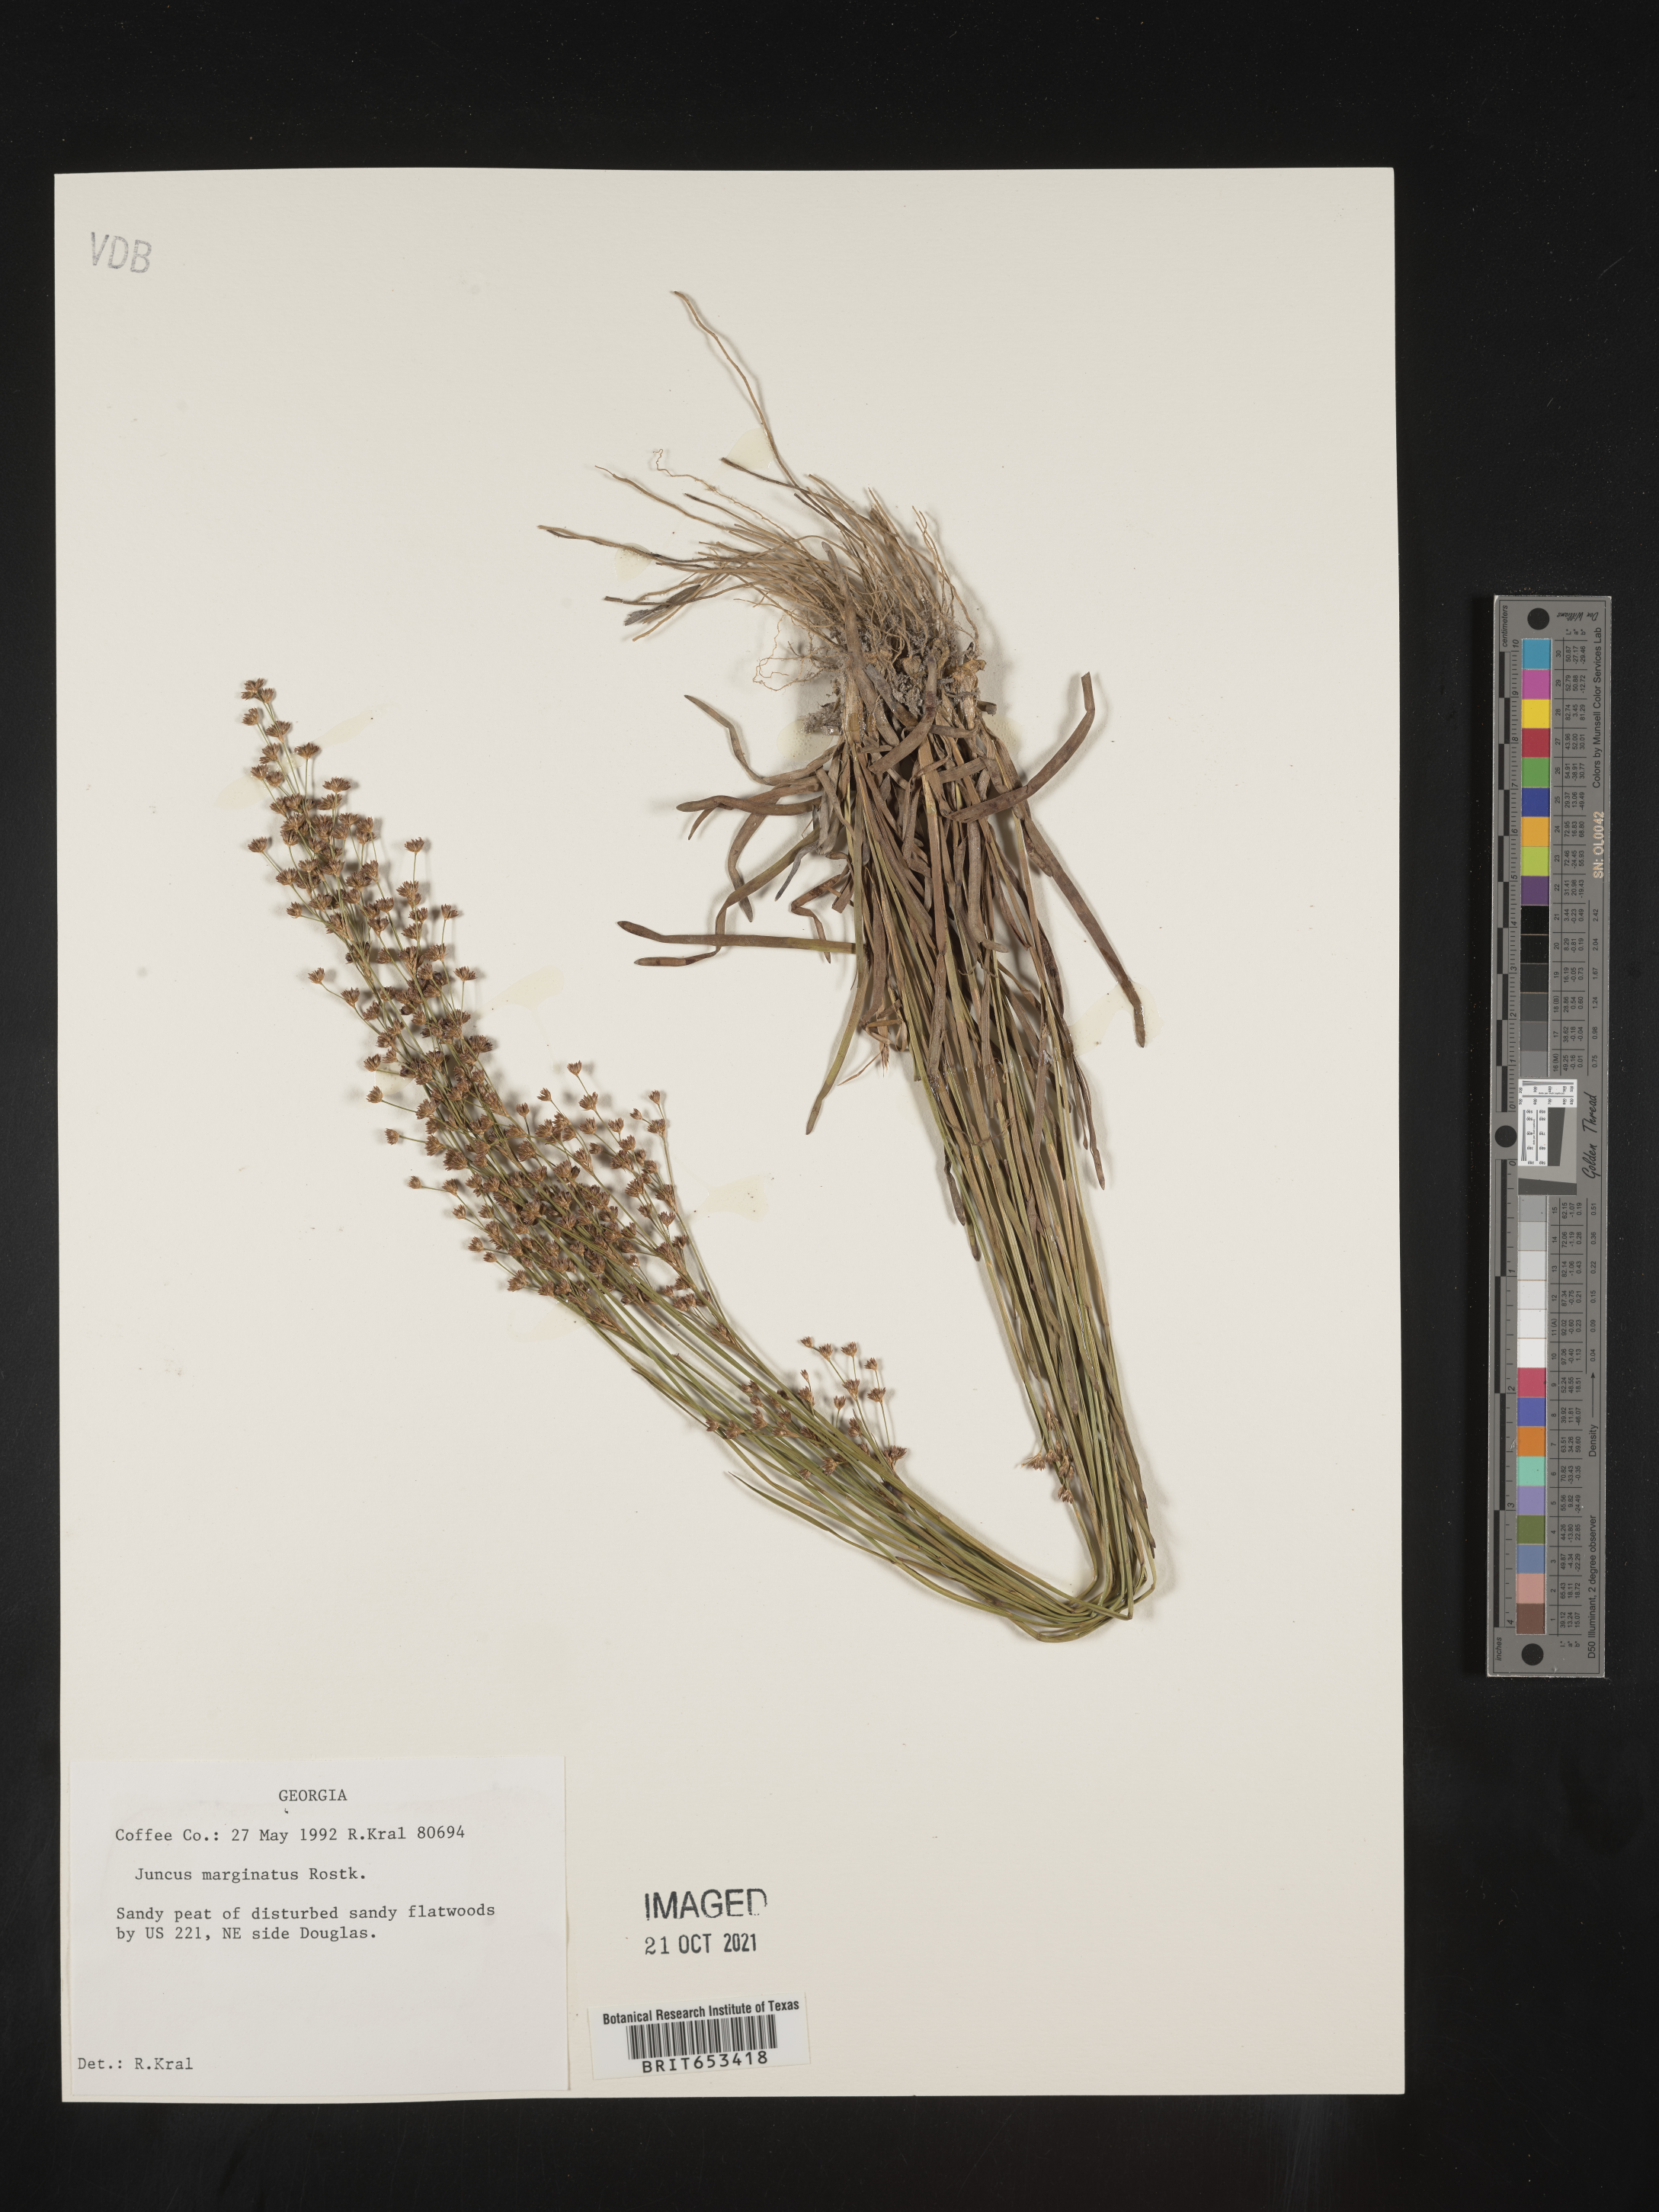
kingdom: Plantae
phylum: Tracheophyta
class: Liliopsida
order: Poales
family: Juncaceae
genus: Juncus
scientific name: Juncus marginatus
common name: Grass-leaf rush
